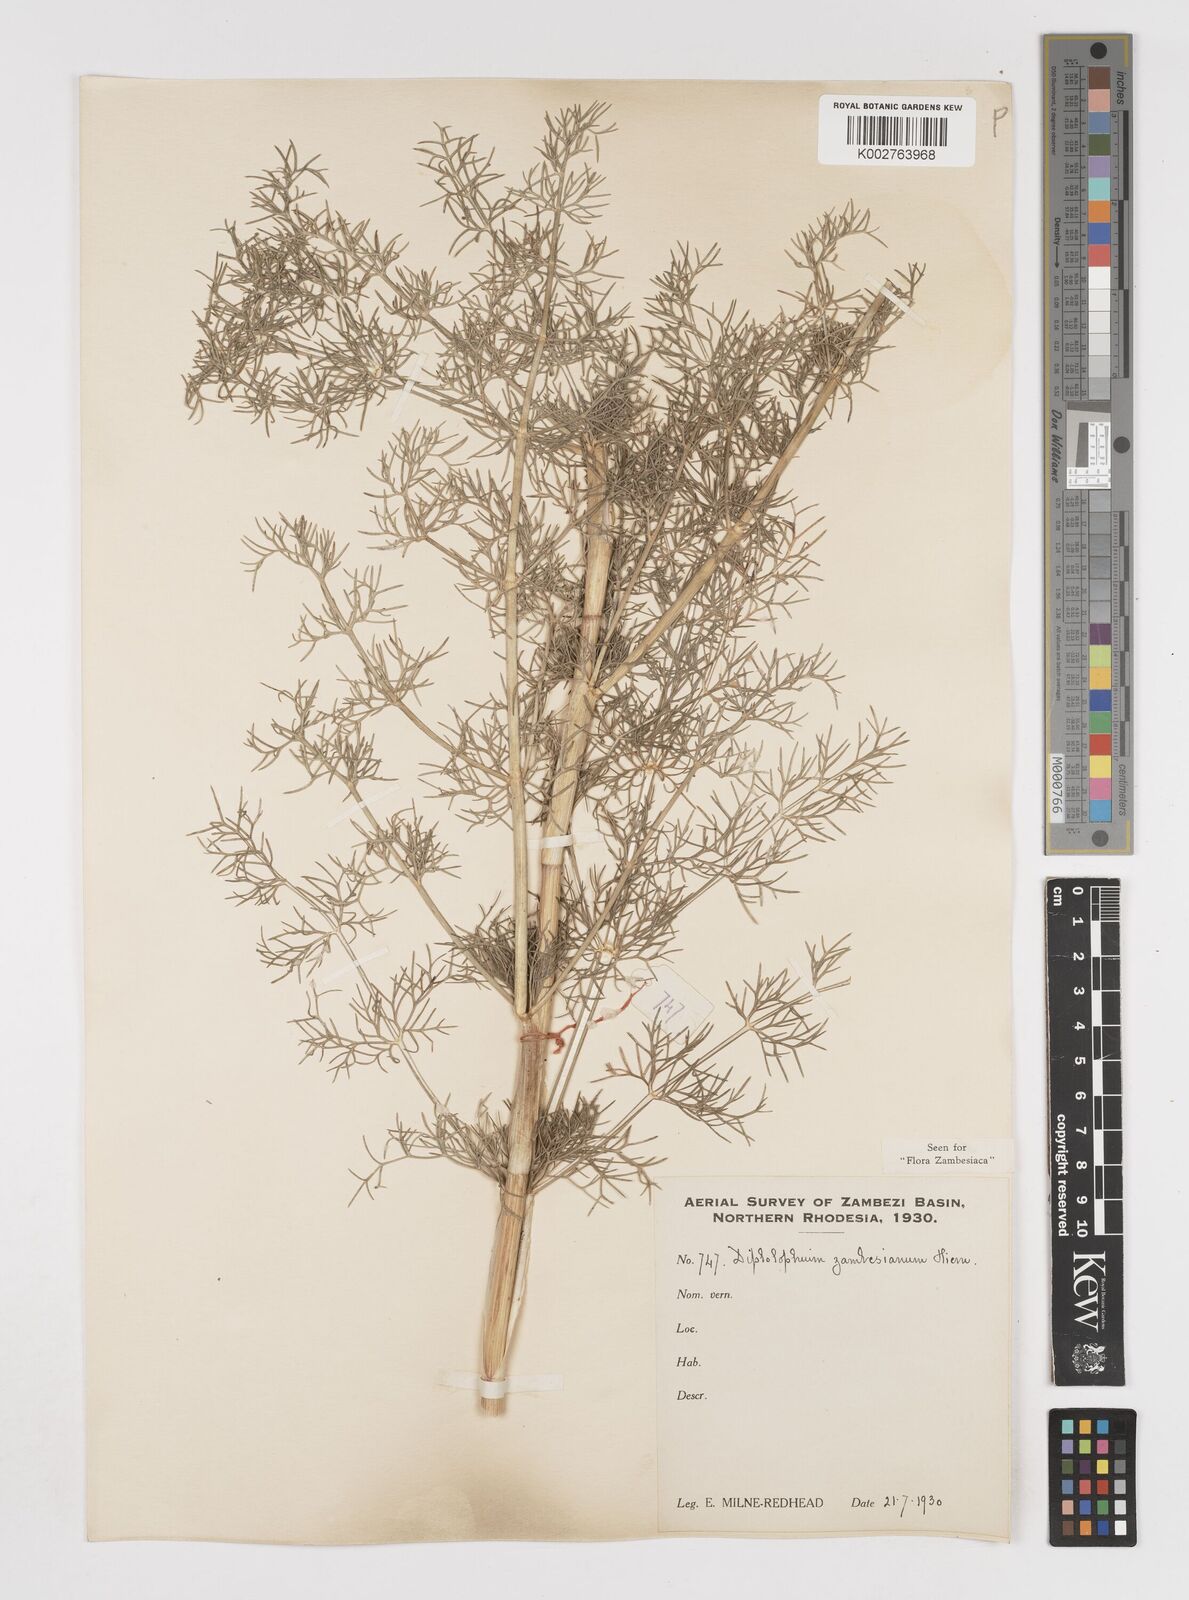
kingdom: Plantae
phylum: Tracheophyta
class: Magnoliopsida
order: Apiales
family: Apiaceae
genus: Diplolophium
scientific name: Diplolophium zambesianum
